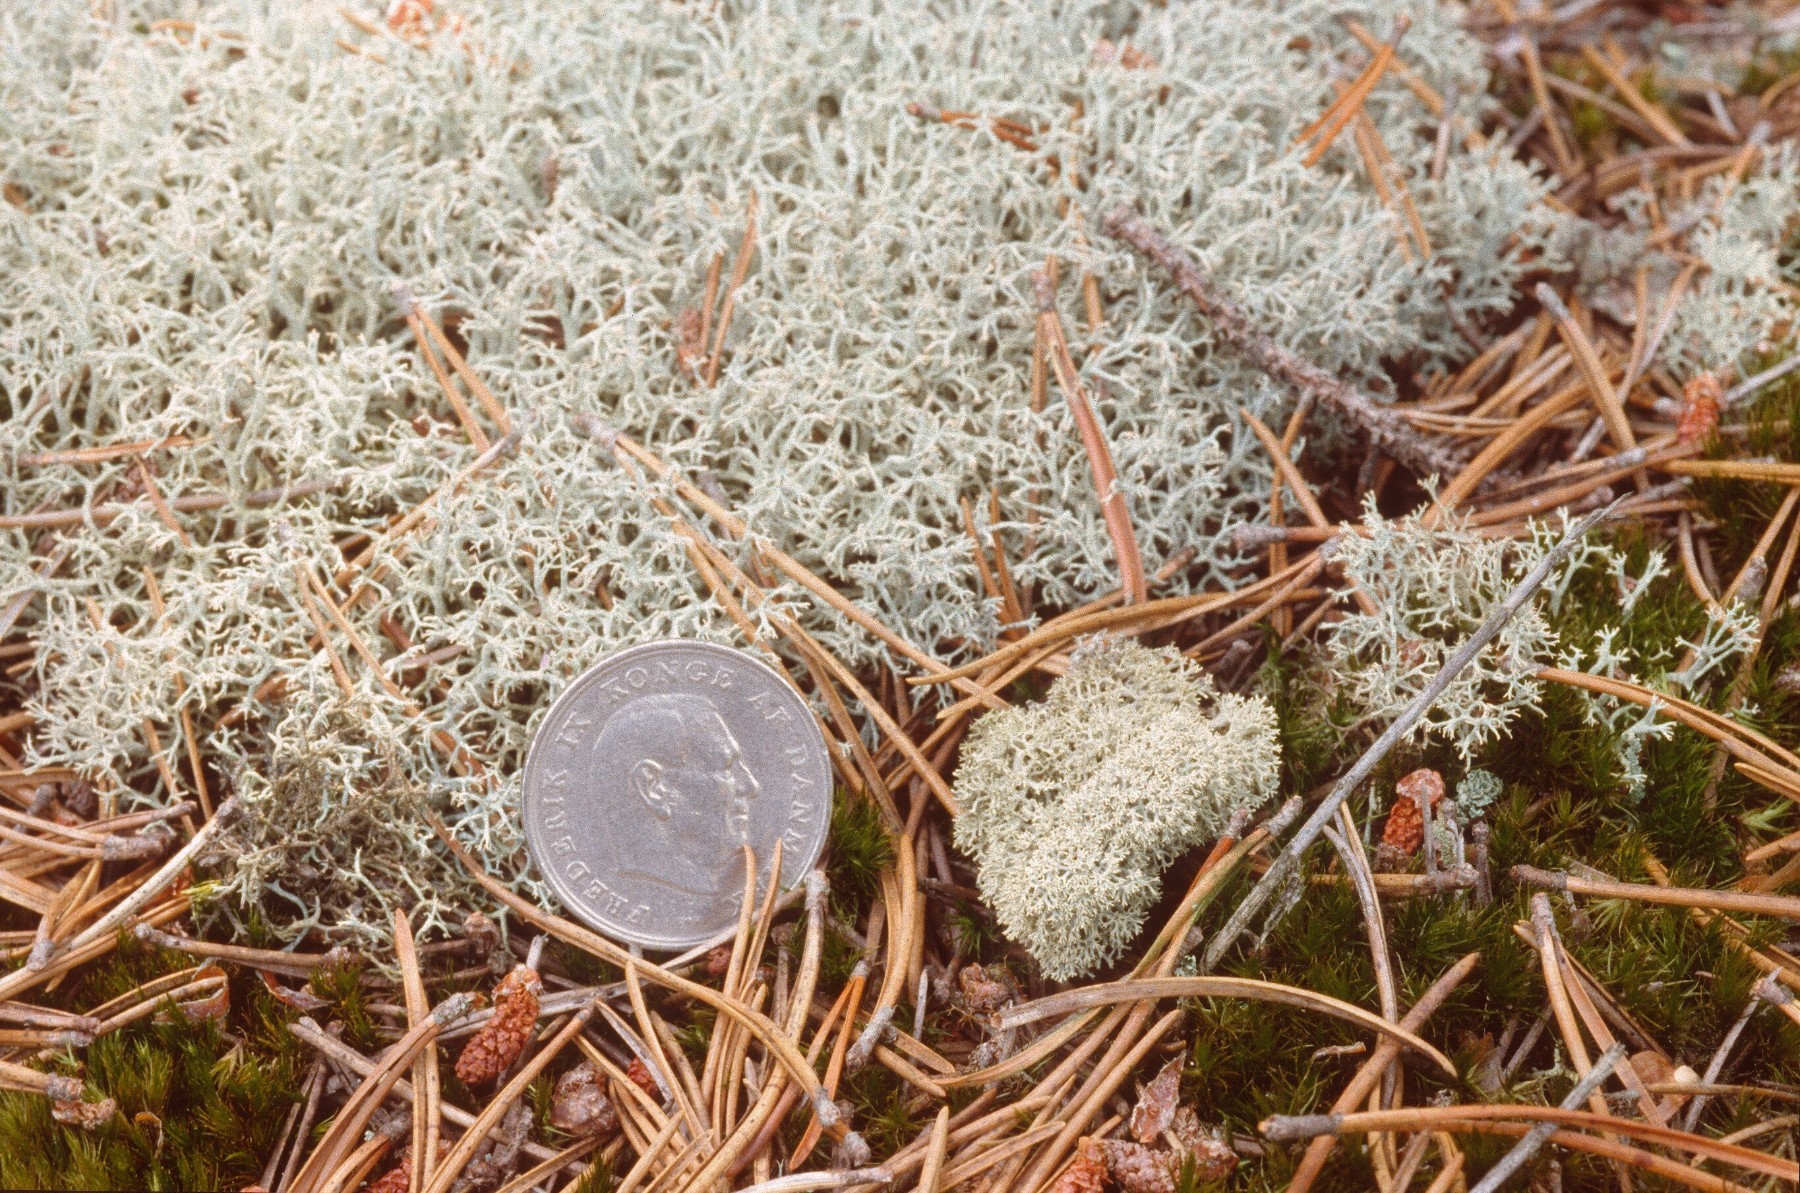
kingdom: Fungi
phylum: Ascomycota
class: Lecanoromycetes
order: Lecanorales
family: Cladoniaceae
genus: Cladonia
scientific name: Cladonia portentosa
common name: hede-rensdyrlav
